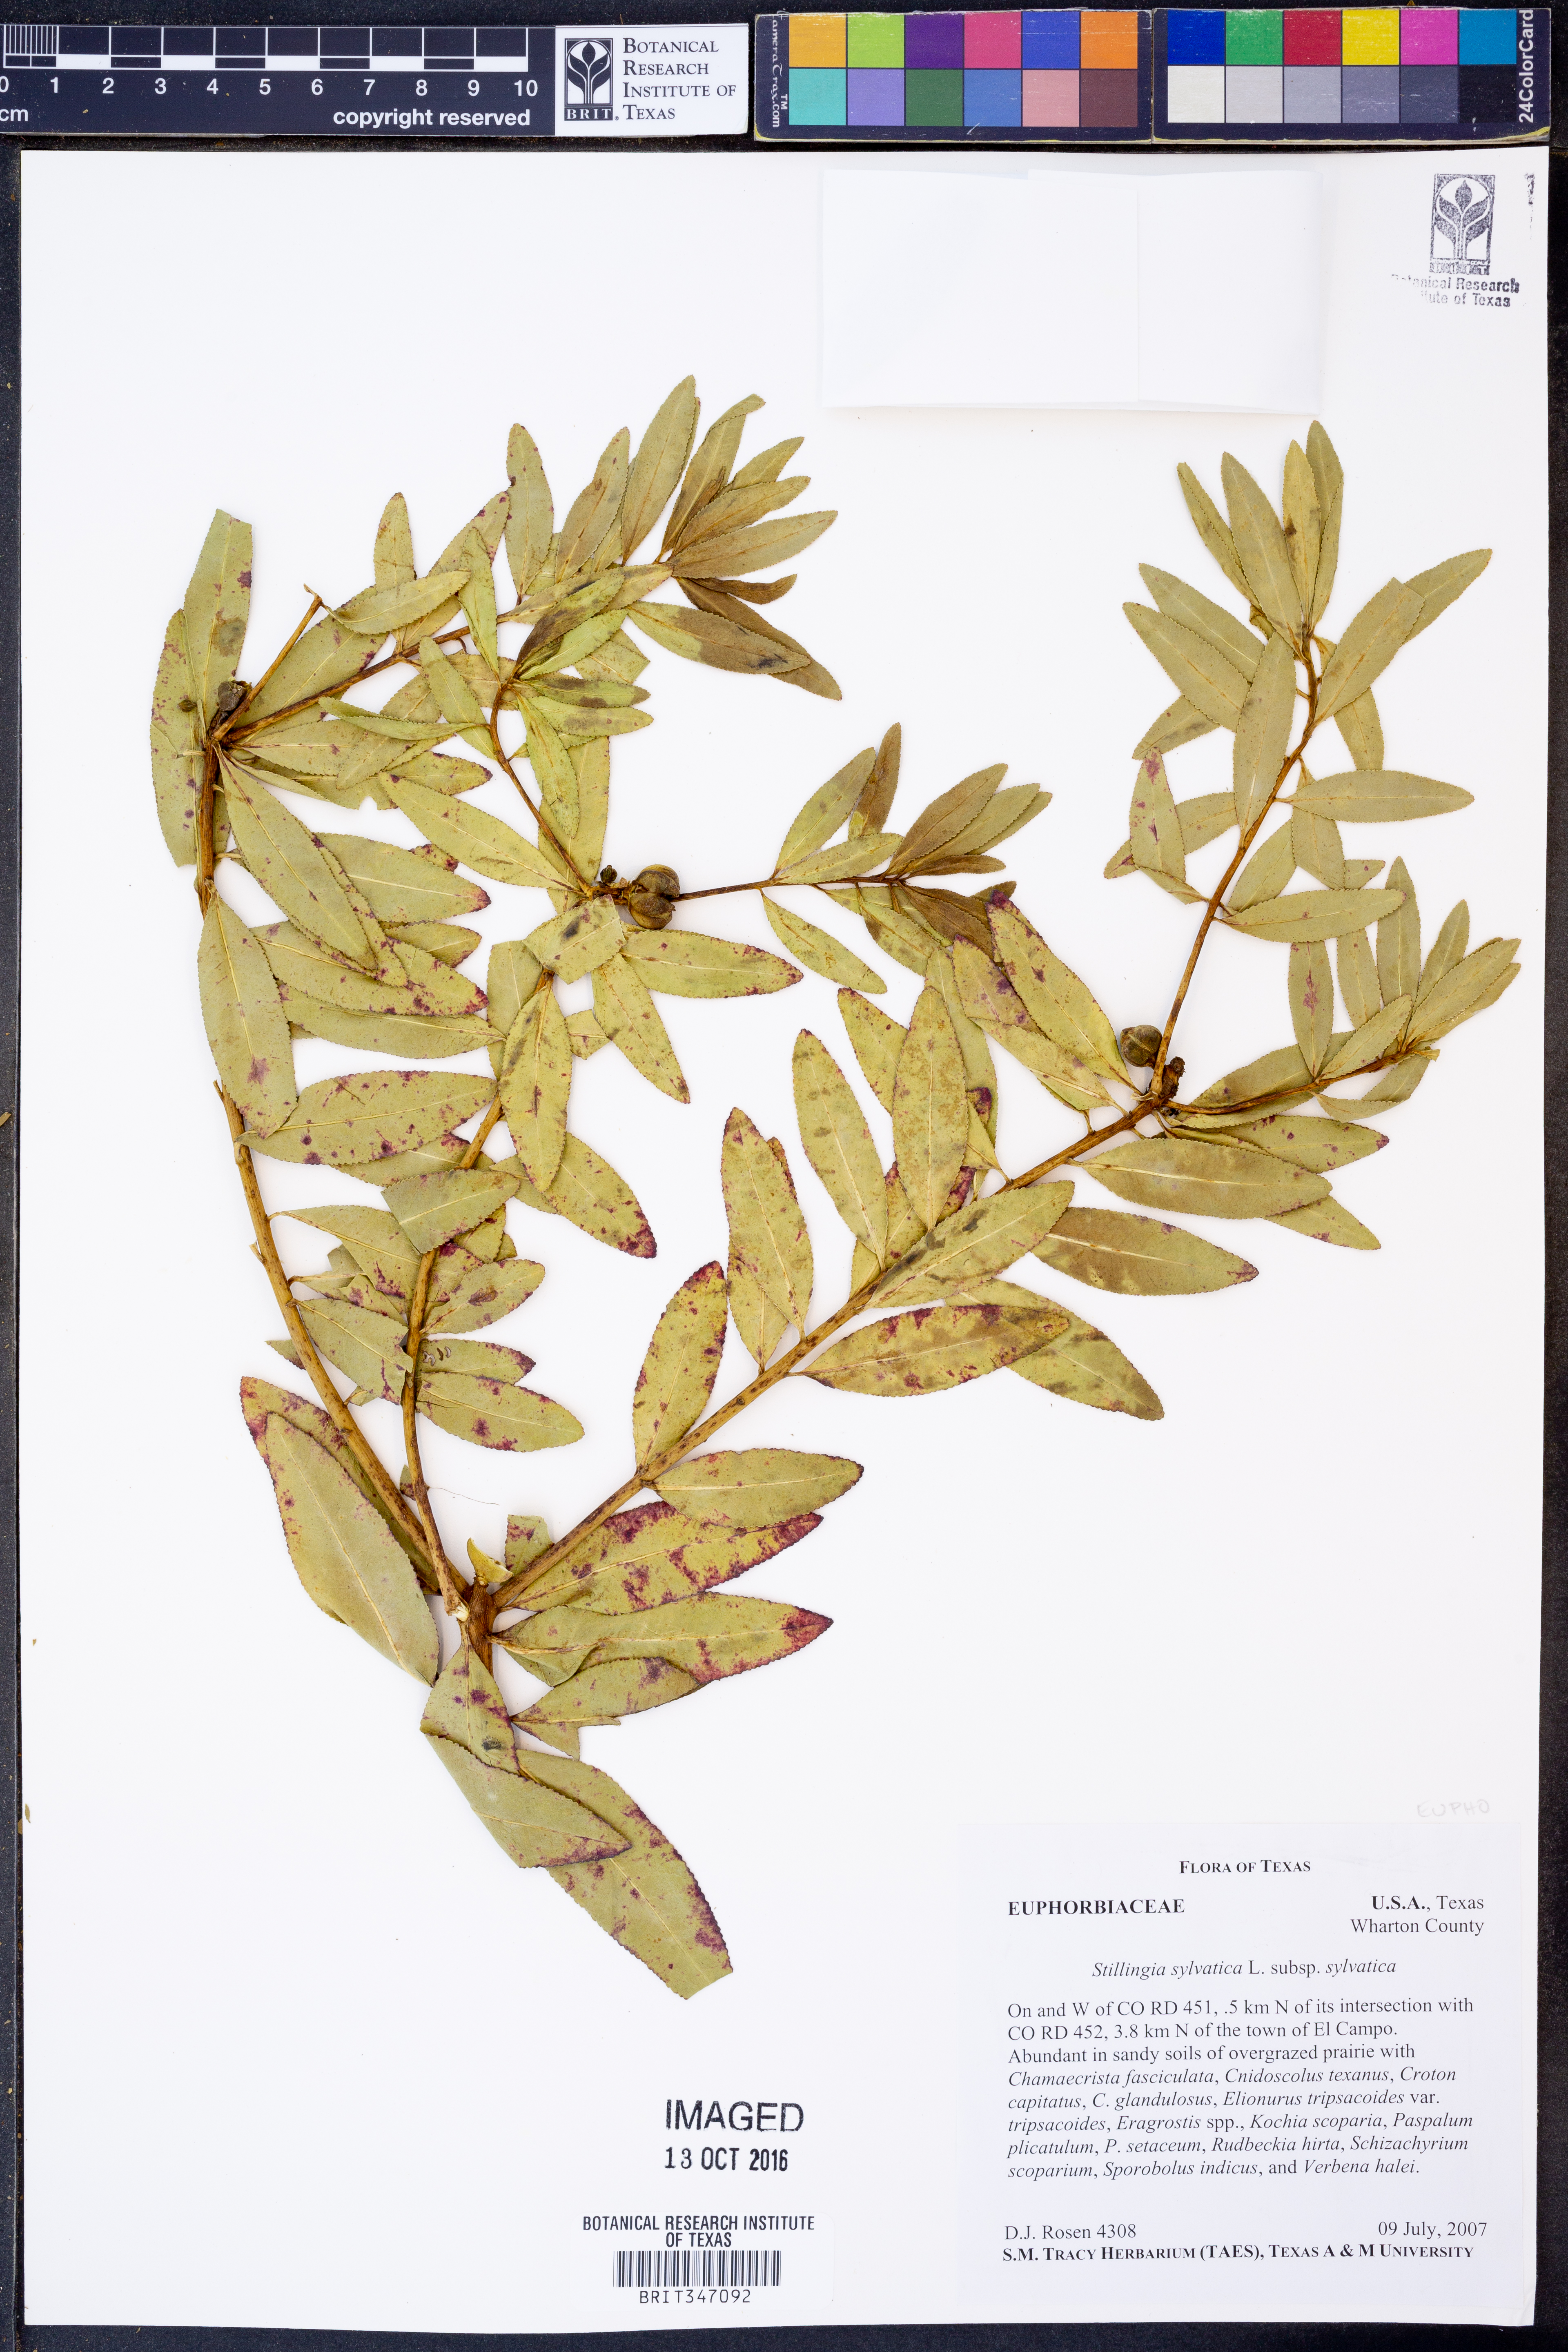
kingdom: Plantae
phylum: Tracheophyta
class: Magnoliopsida
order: Malpighiales
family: Euphorbiaceae
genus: Stillingia
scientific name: Stillingia sylvatica
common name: Queen's-delight
